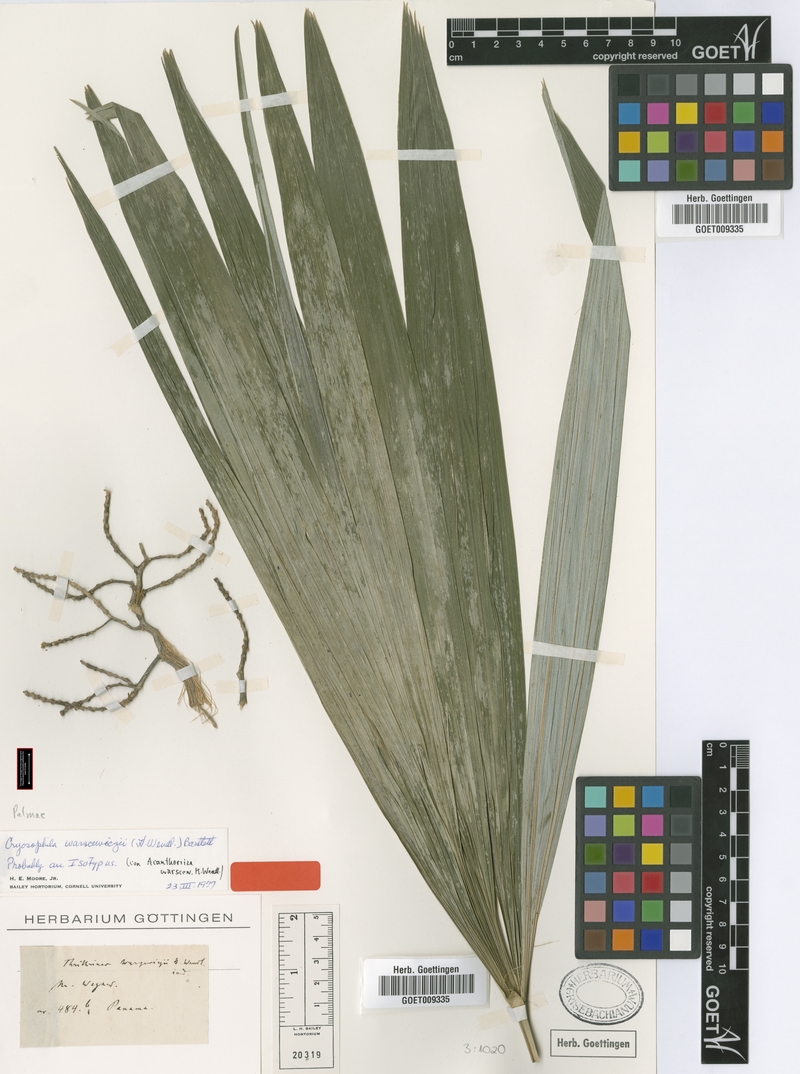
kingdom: Plantae
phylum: Tracheophyta
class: Liliopsida
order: Arecales
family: Arecaceae
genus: Cryosophila
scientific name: Cryosophila warscewiczii
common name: Root-spine palm
